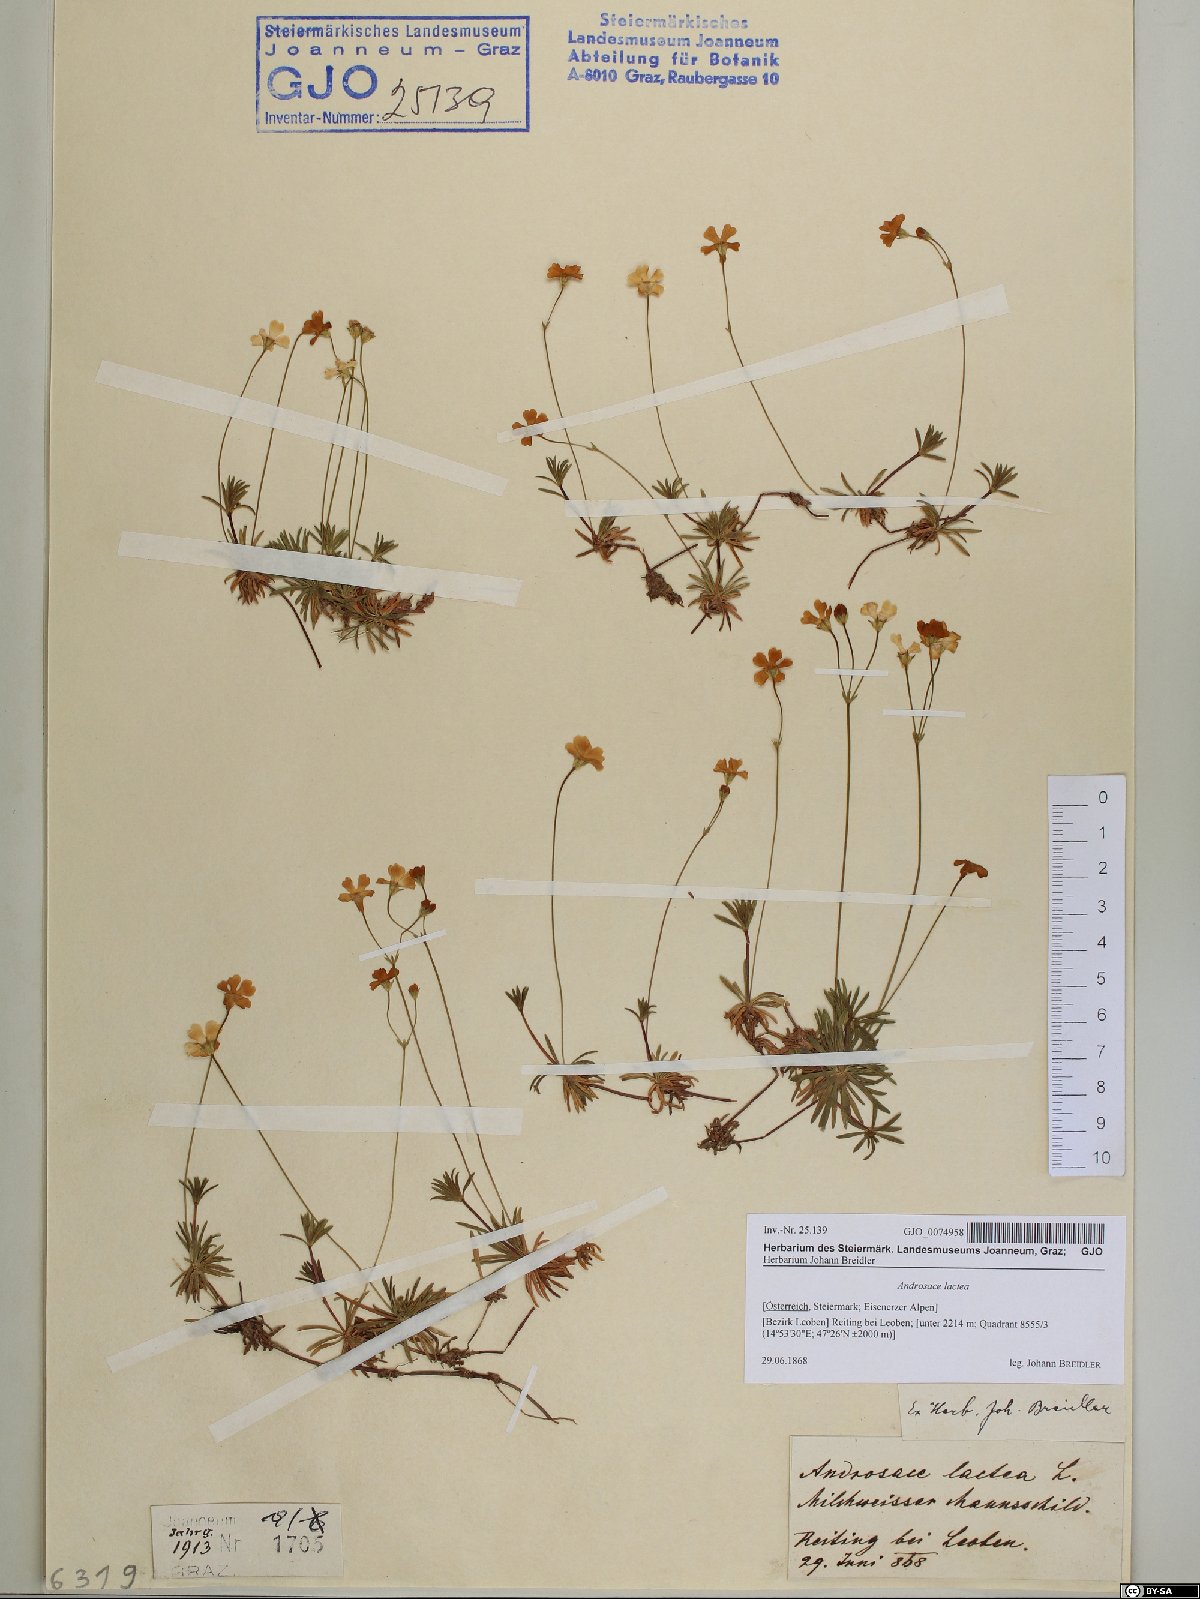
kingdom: Plantae
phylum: Tracheophyta
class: Magnoliopsida
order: Ericales
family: Primulaceae
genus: Androsace
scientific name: Androsace lactea
